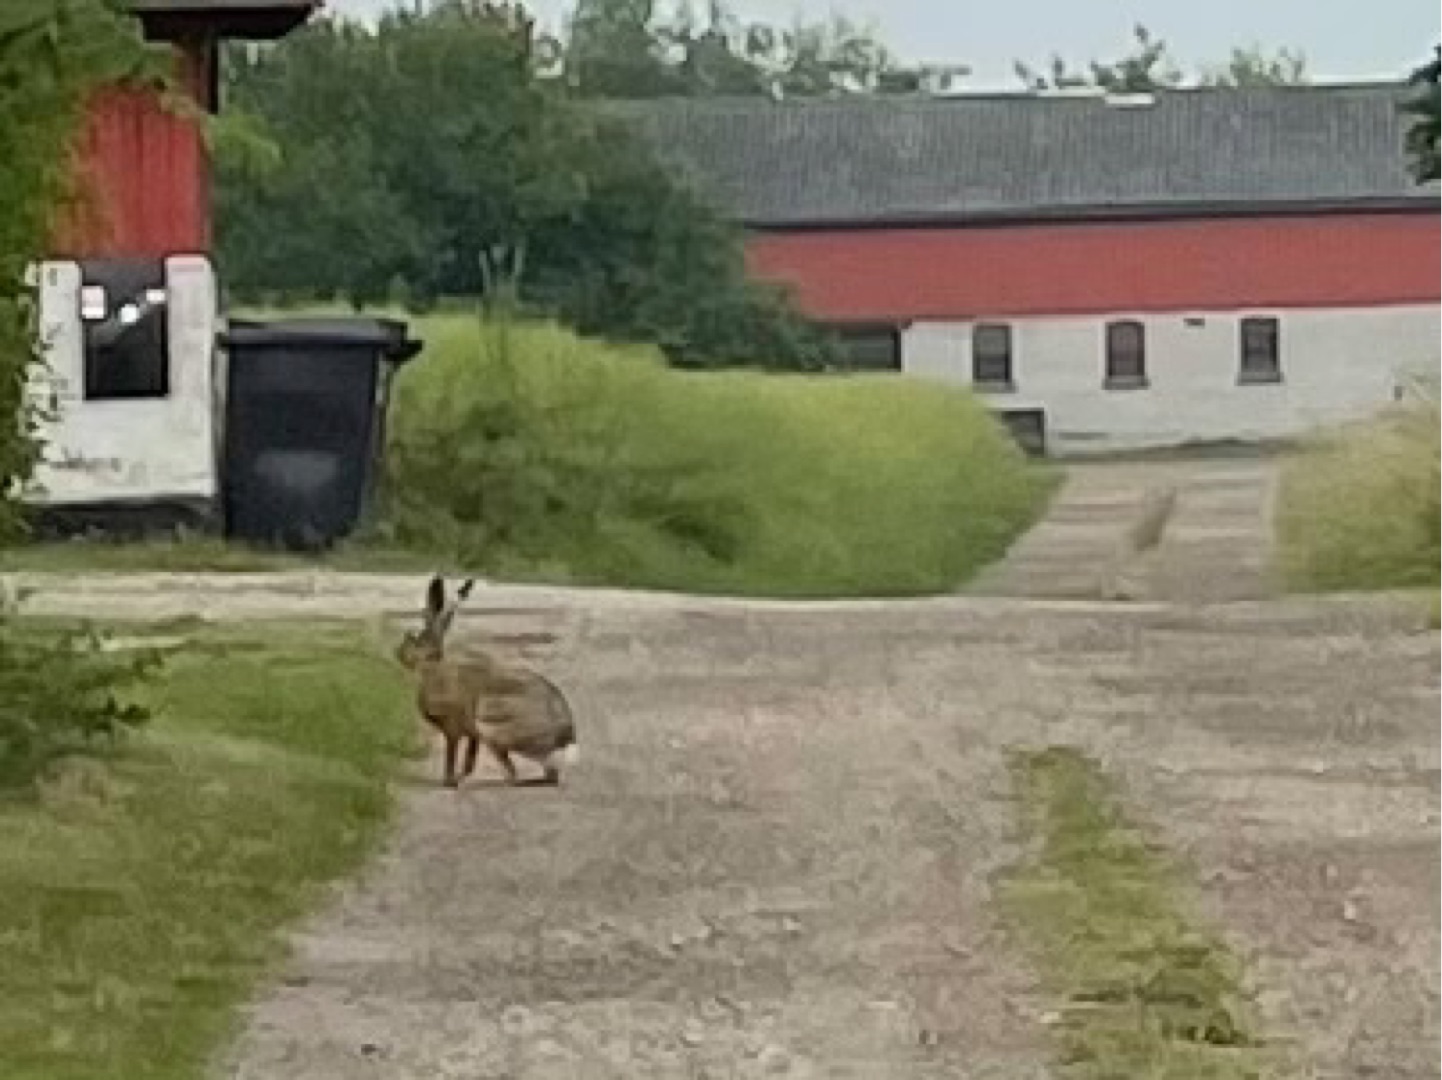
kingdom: Animalia
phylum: Chordata
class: Mammalia
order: Lagomorpha
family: Leporidae
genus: Lepus
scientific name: Lepus europaeus
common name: Hare
